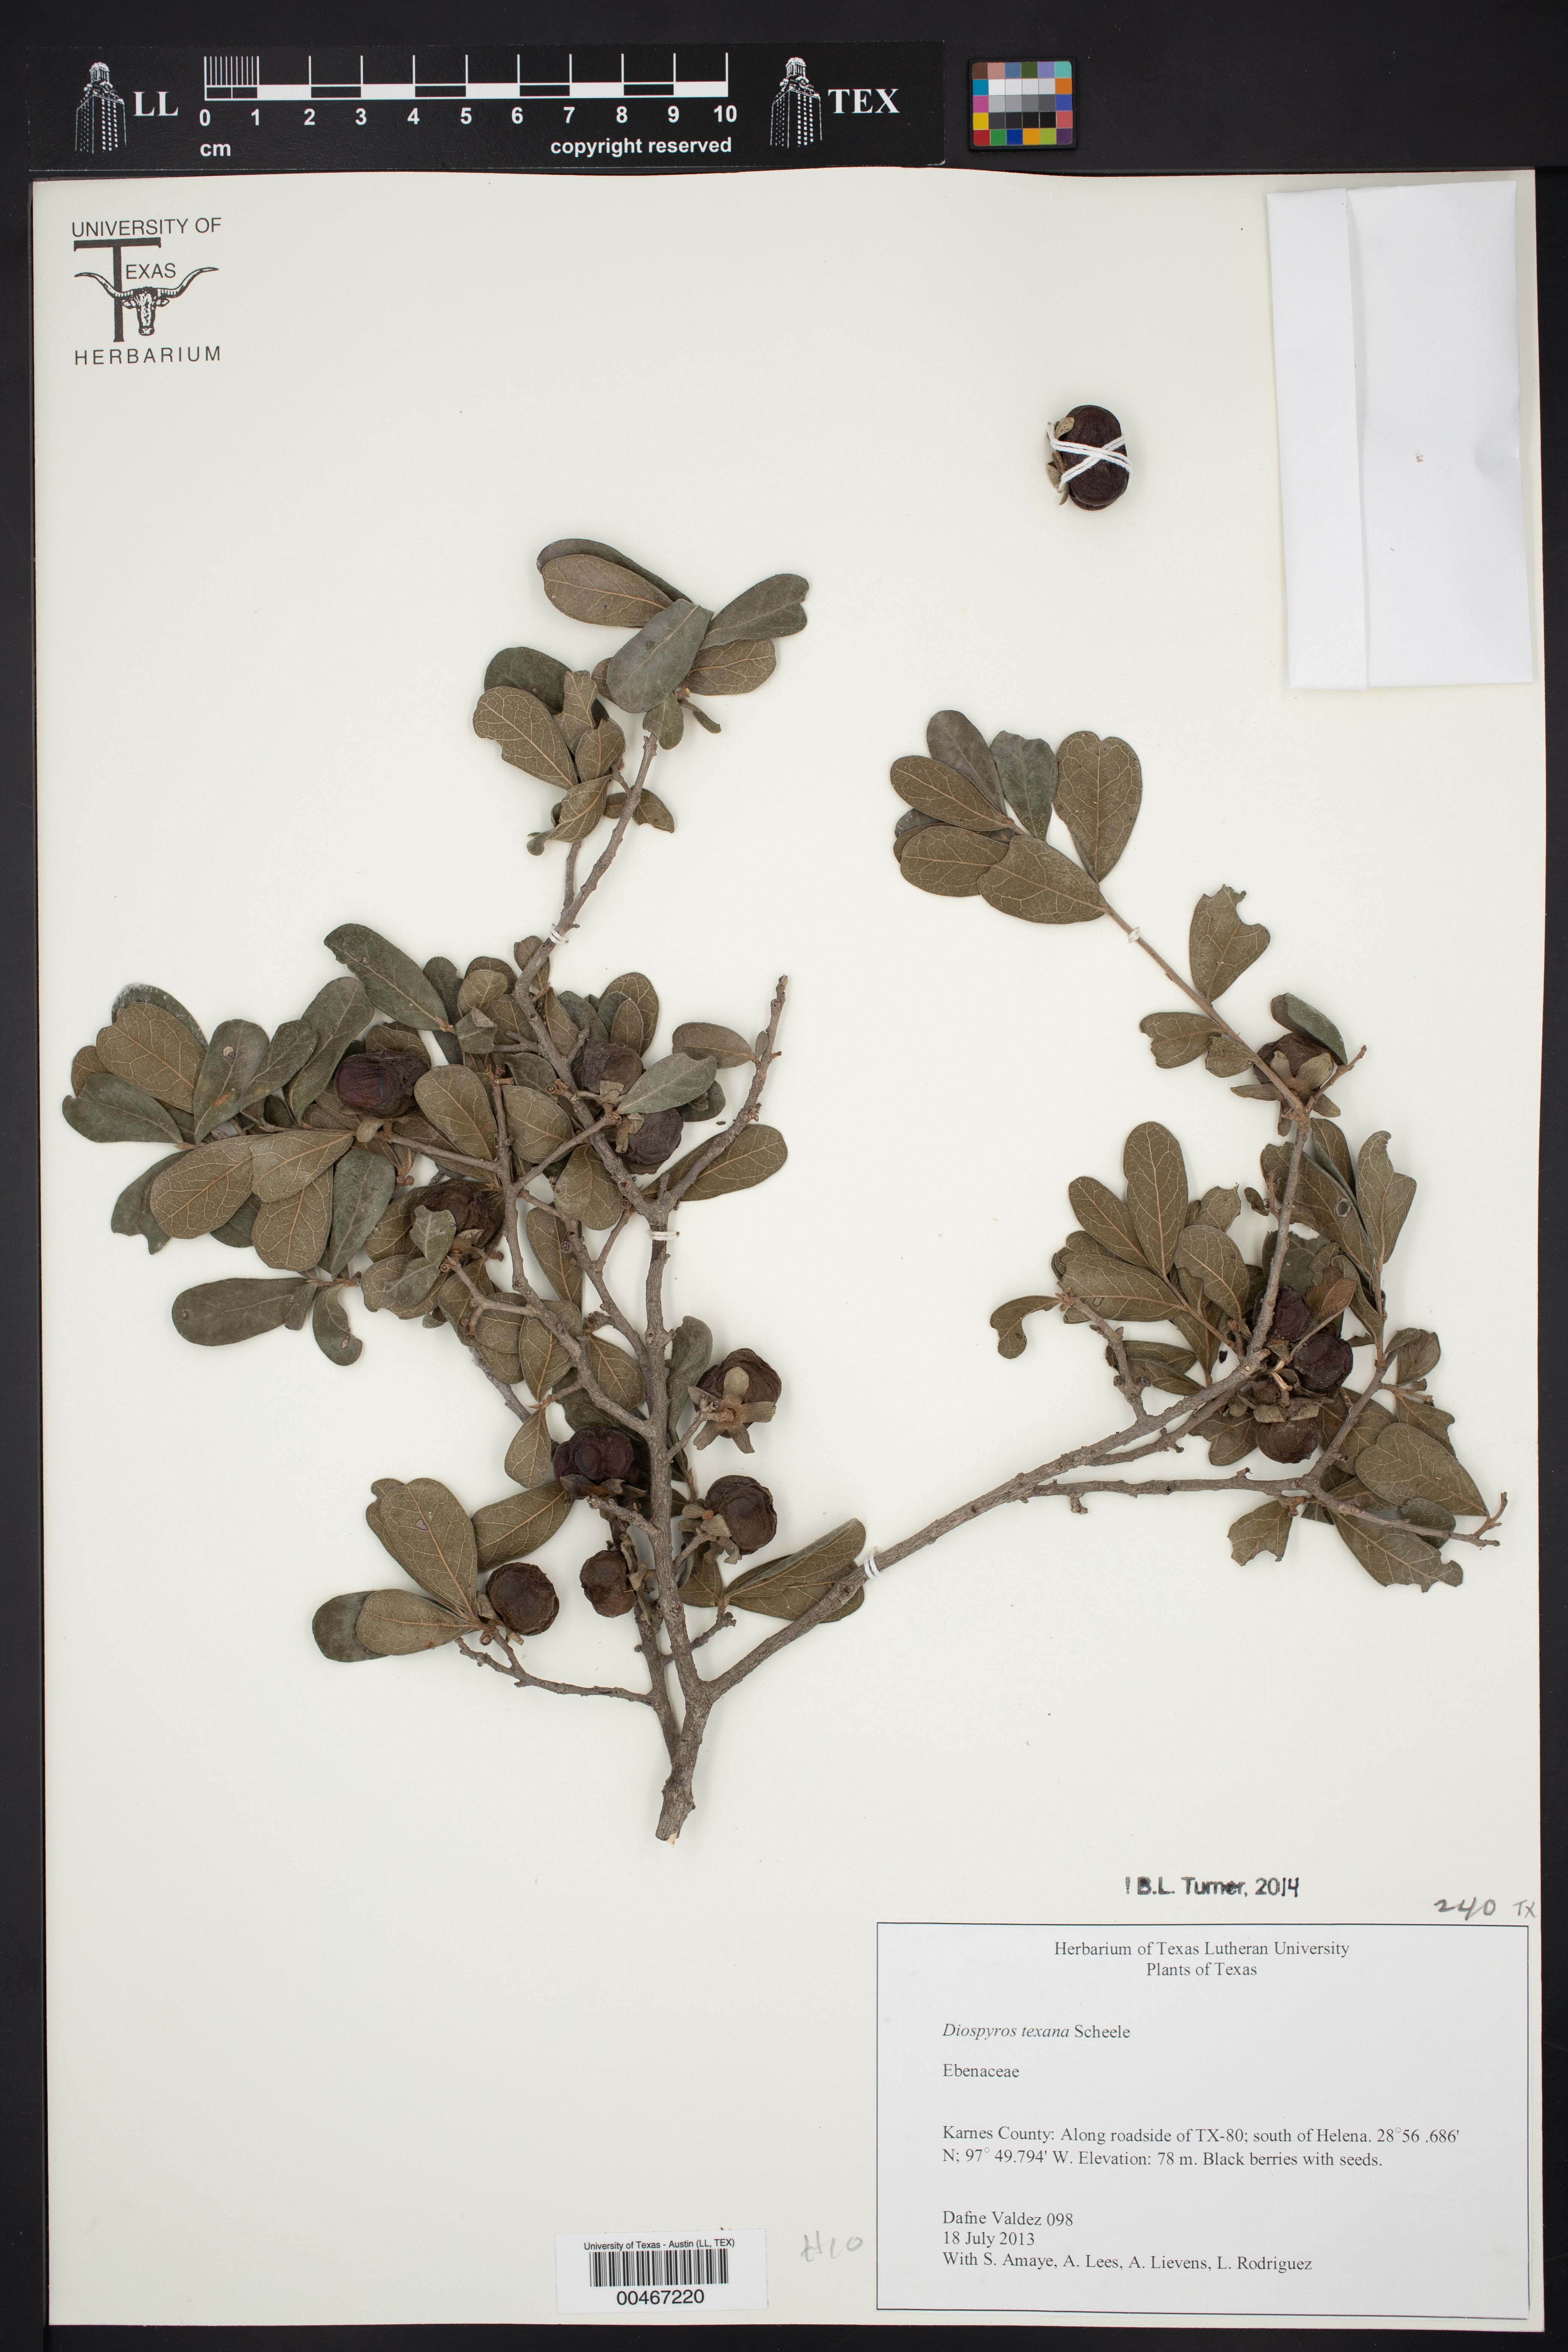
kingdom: Plantae
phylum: Tracheophyta
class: Magnoliopsida
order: Ericales
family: Ebenaceae
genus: Diospyros
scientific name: Diospyros texana
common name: Texas persimmon
